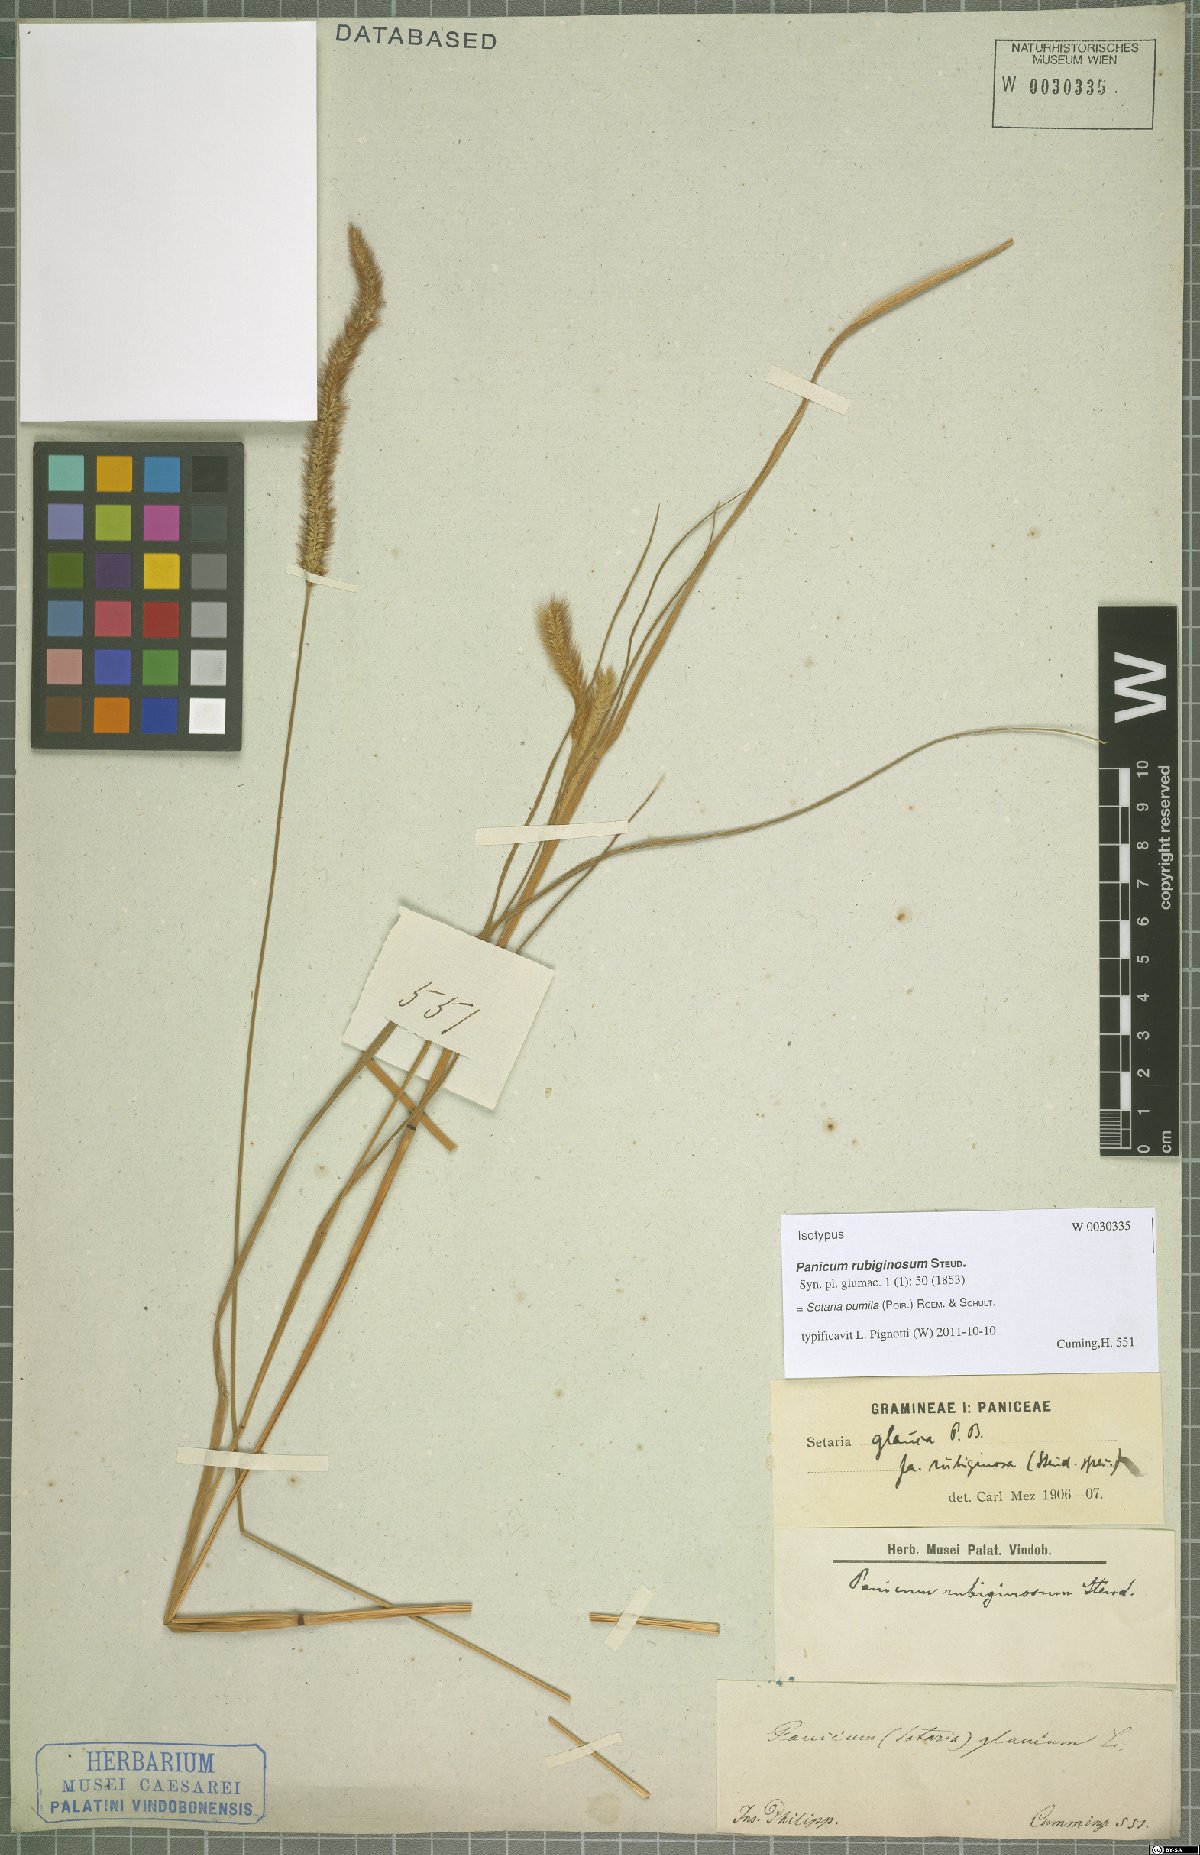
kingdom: Plantae
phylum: Tracheophyta
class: Liliopsida
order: Poales
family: Poaceae
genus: Setaria
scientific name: Setaria pumila
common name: Yellow bristle-grass
